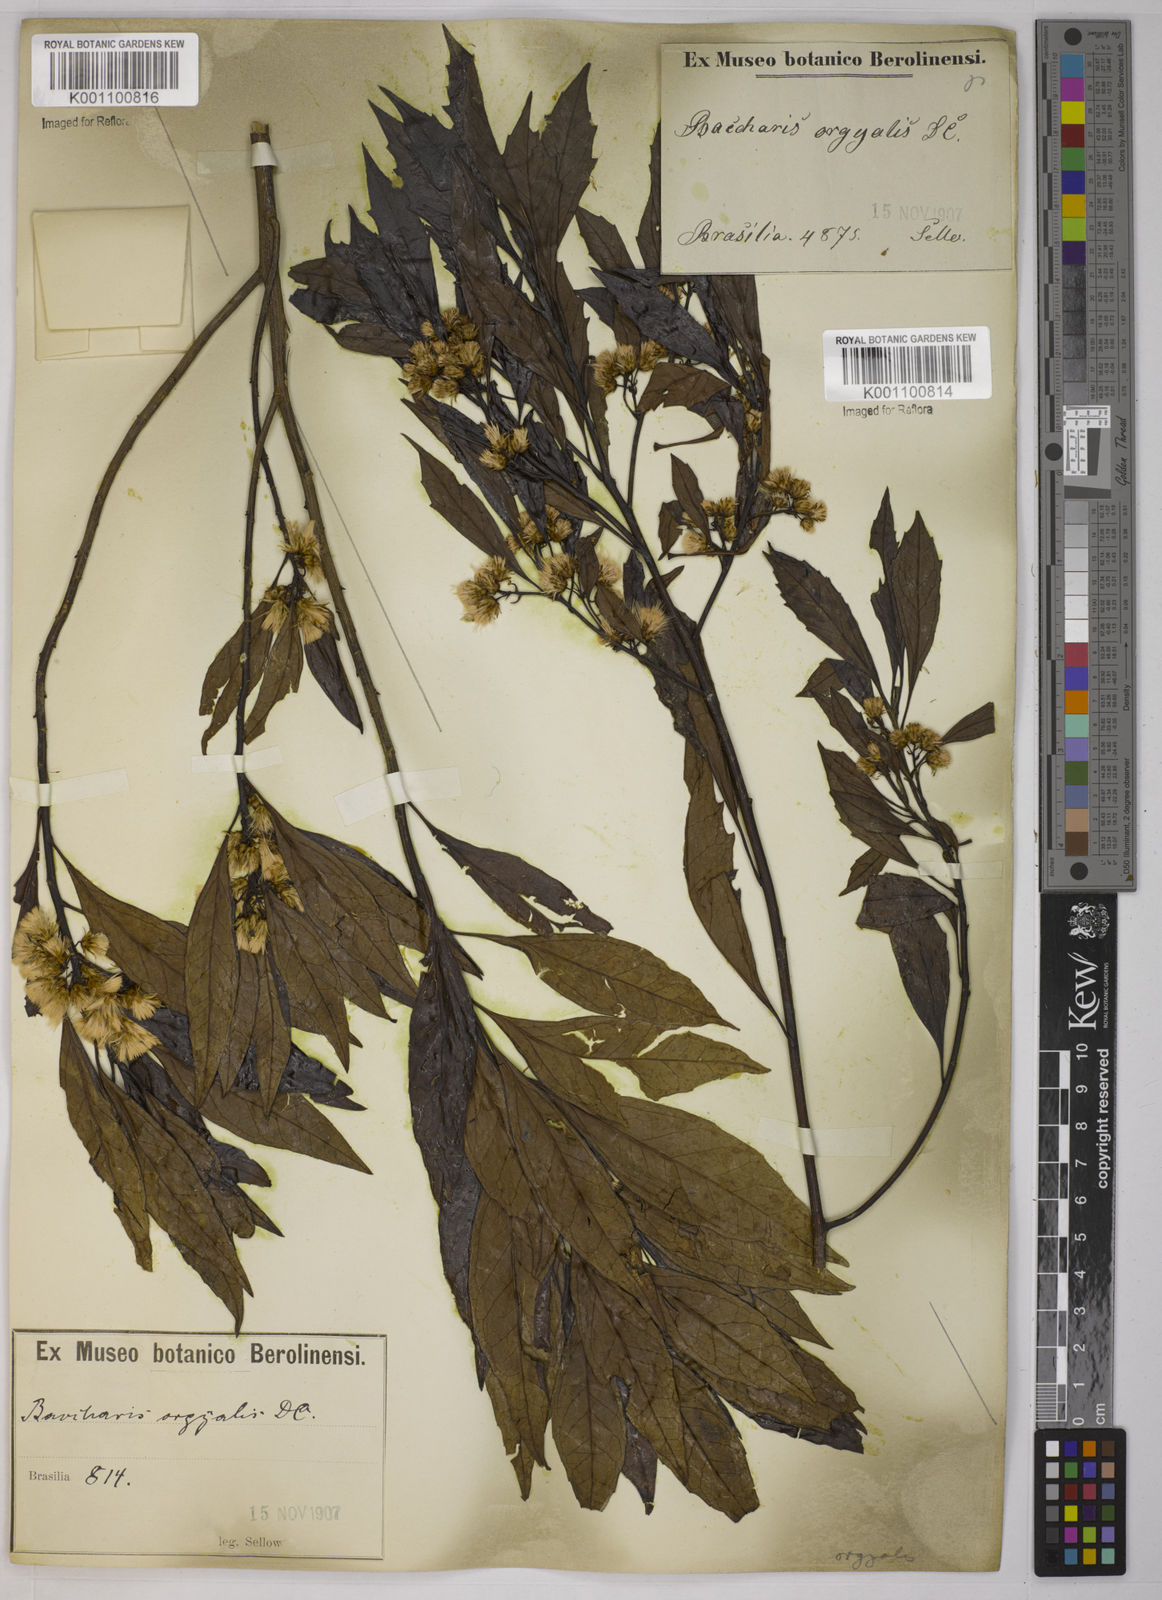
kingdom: Plantae
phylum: Tracheophyta
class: Magnoliopsida
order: Asterales
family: Asteraceae
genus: Baccharis
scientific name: Baccharis dentata
